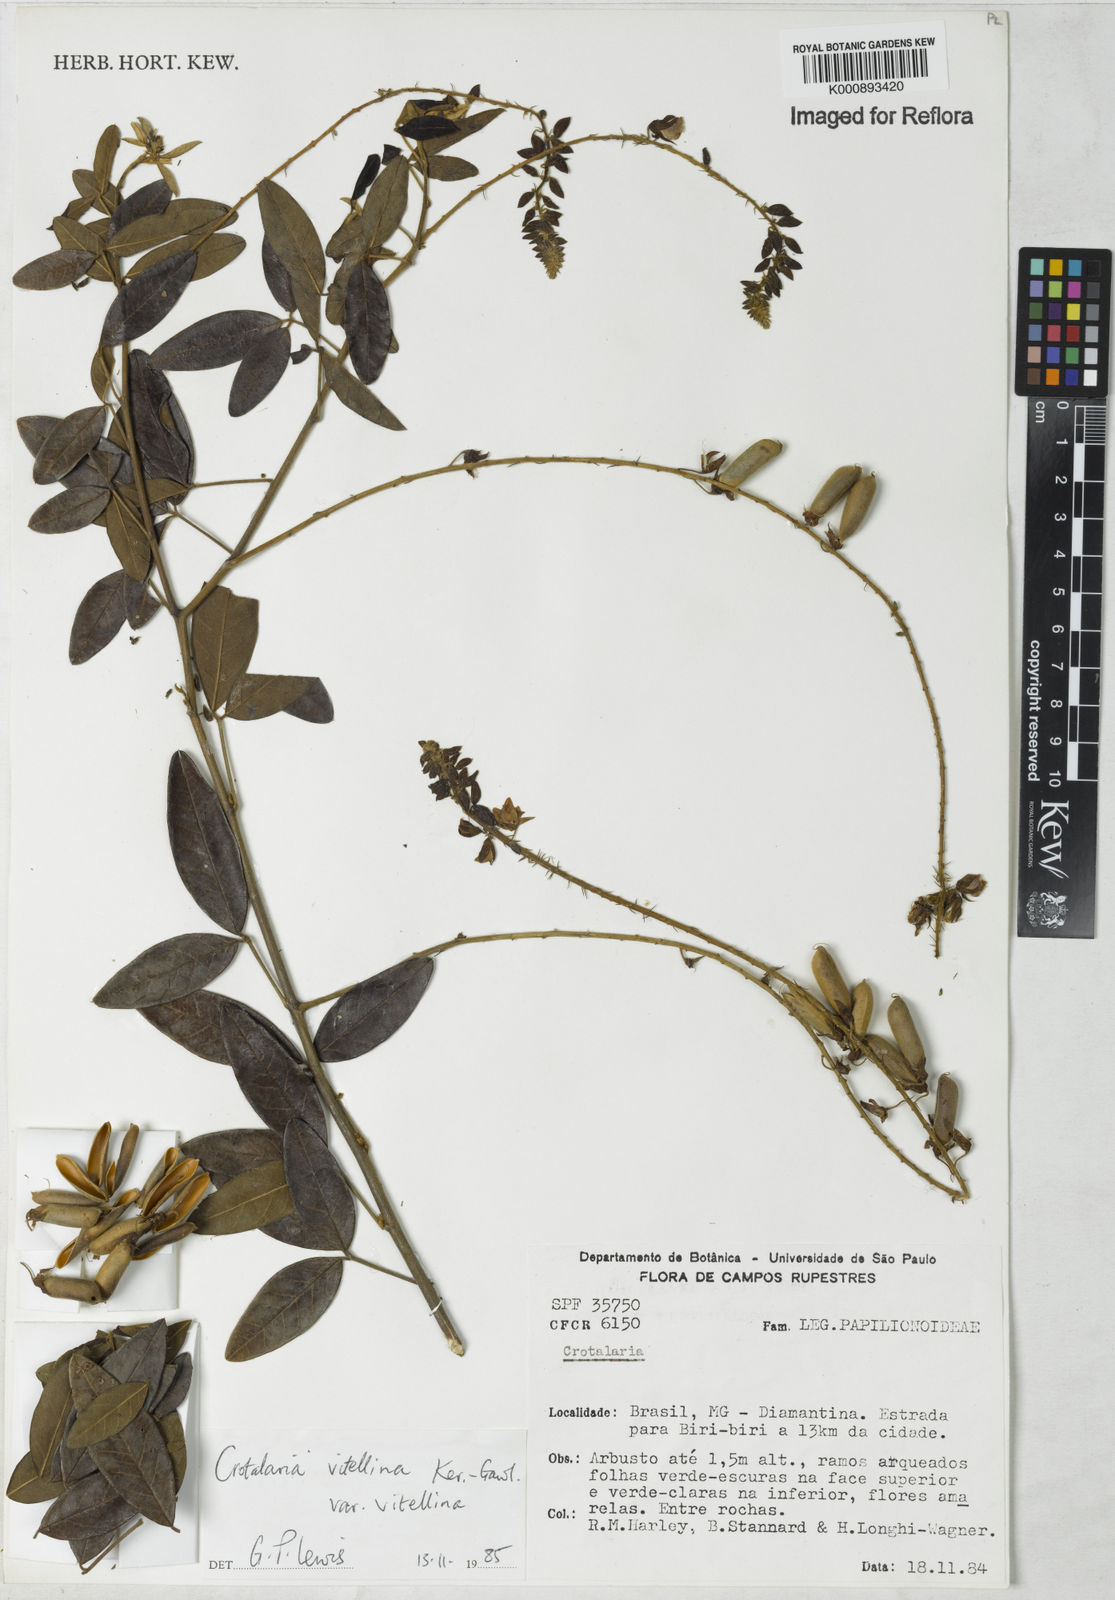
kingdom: Plantae
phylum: Tracheophyta
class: Magnoliopsida
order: Fabales
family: Fabaceae
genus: Crotalaria
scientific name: Crotalaria vitellina
